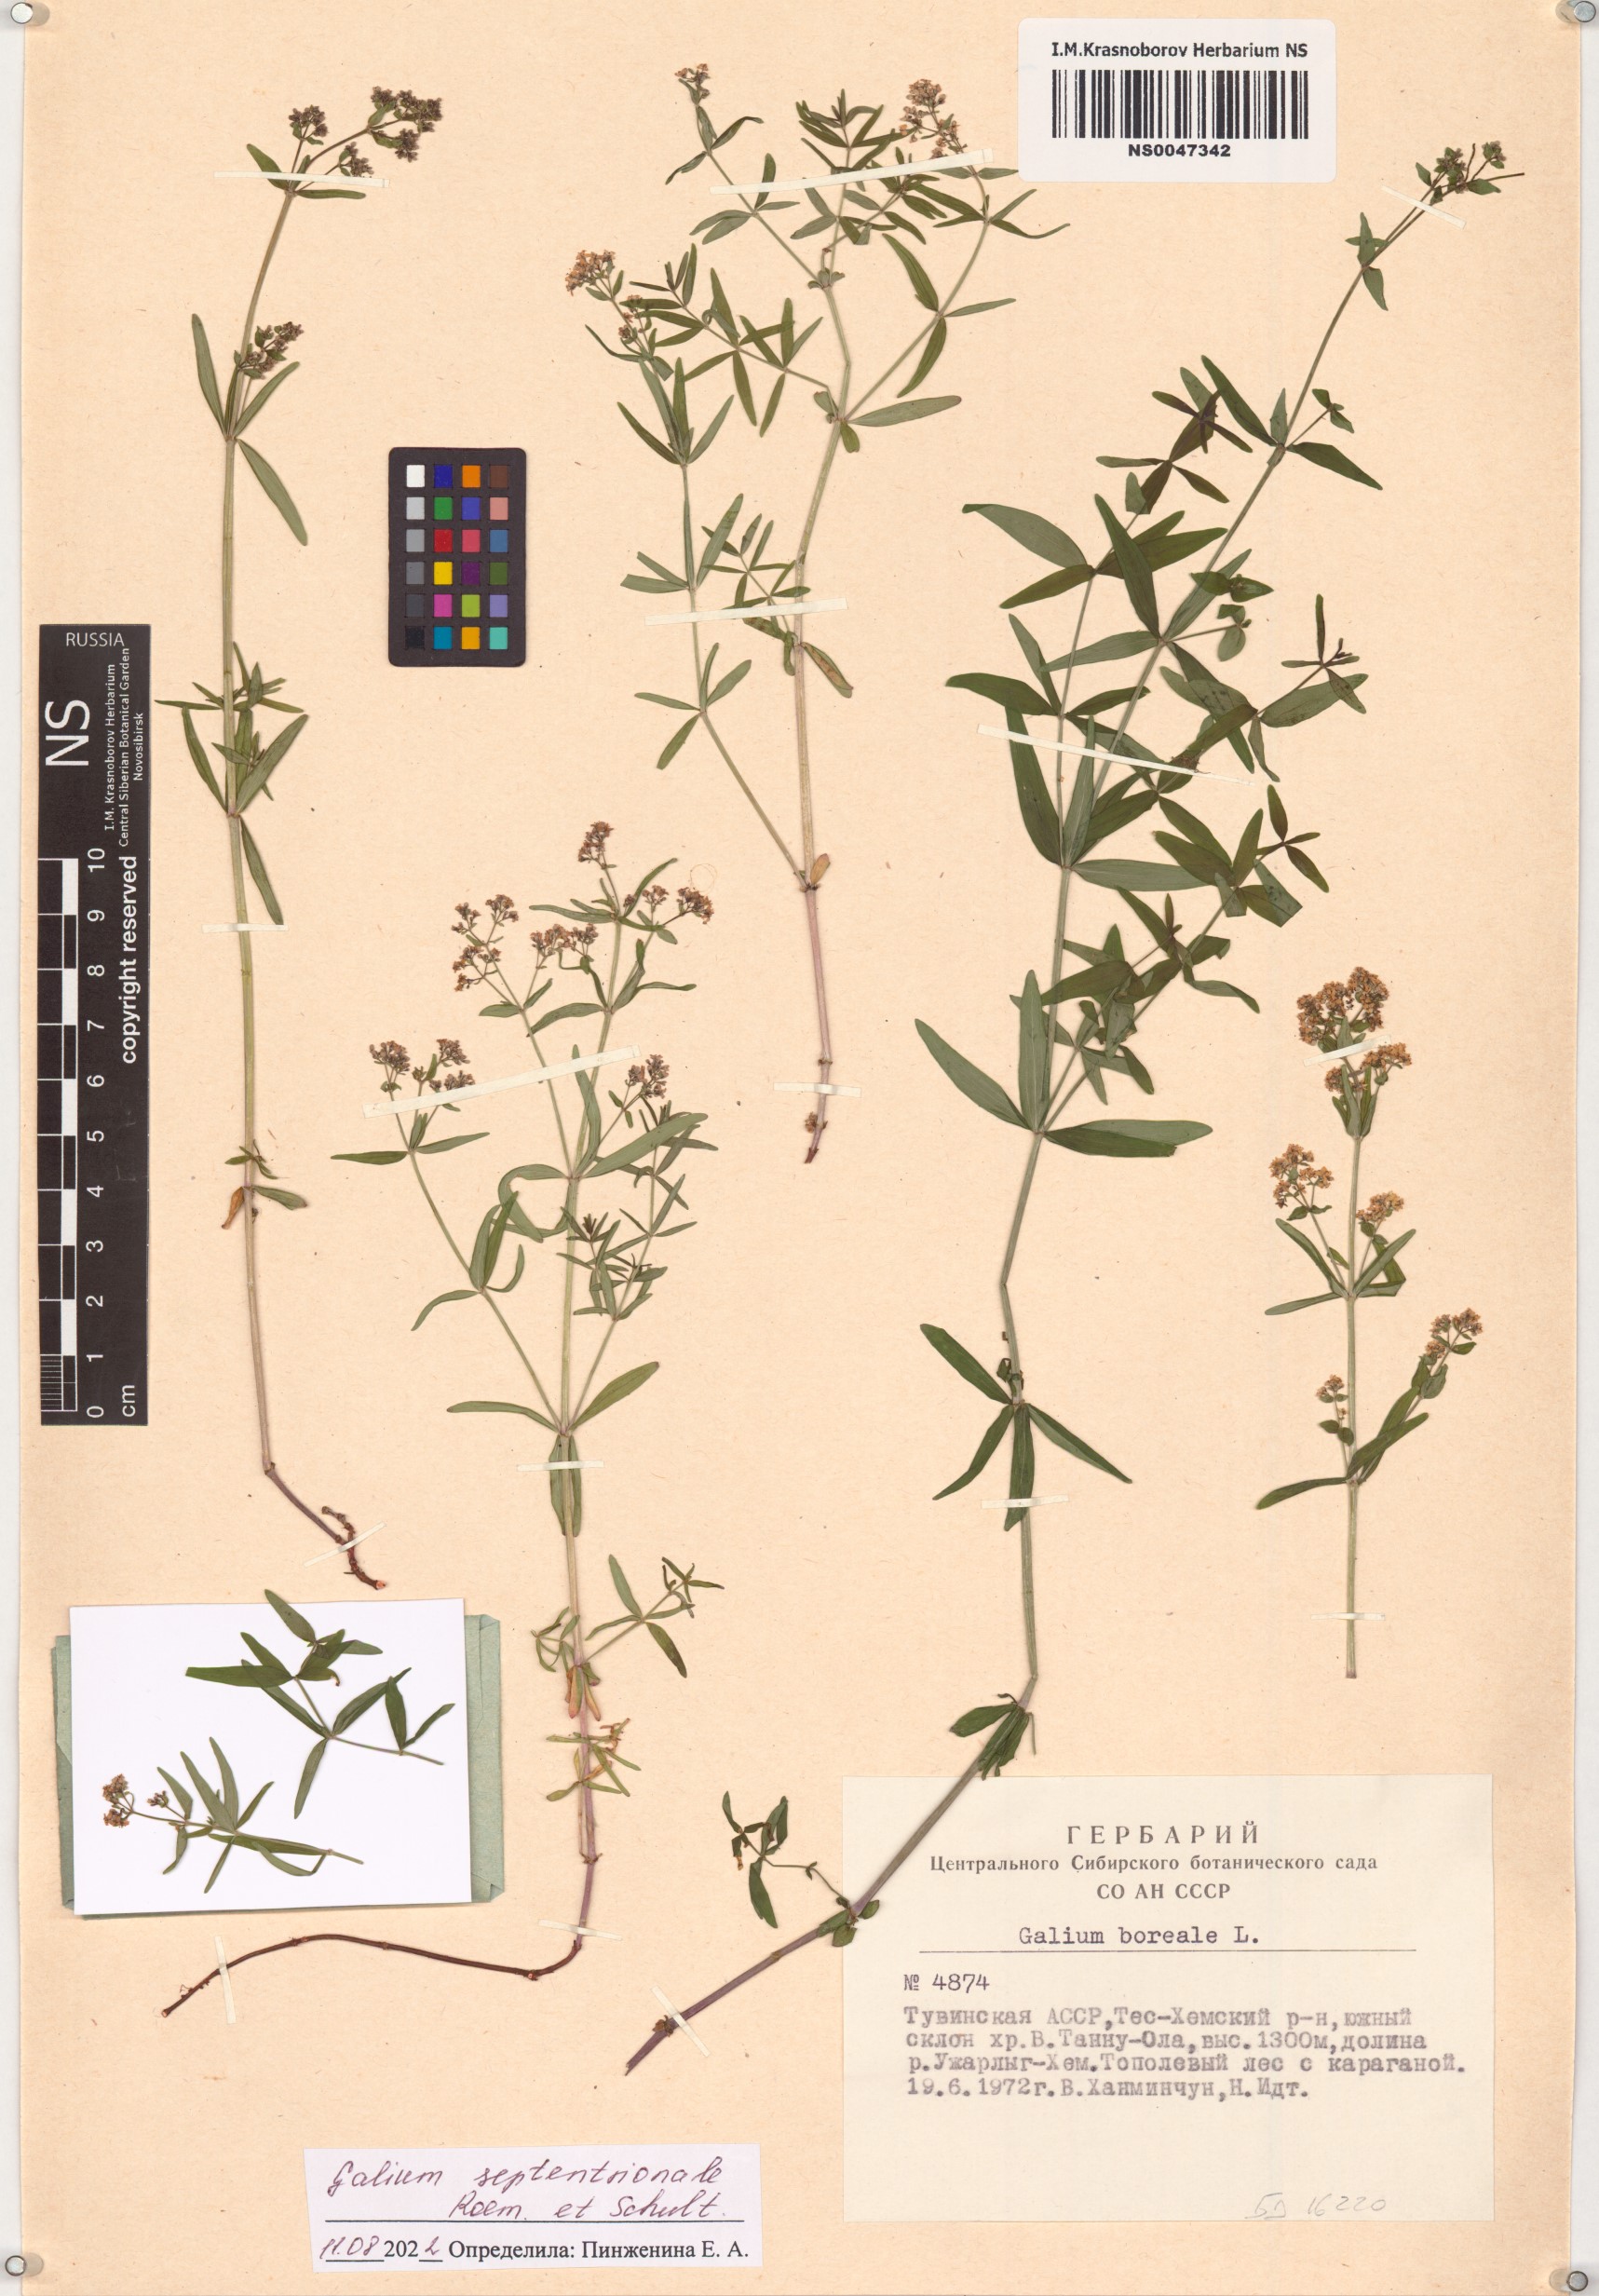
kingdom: Plantae
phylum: Tracheophyta
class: Magnoliopsida
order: Gentianales
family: Rubiaceae
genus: Galium
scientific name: Galium boreale
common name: Northern bedstraw
